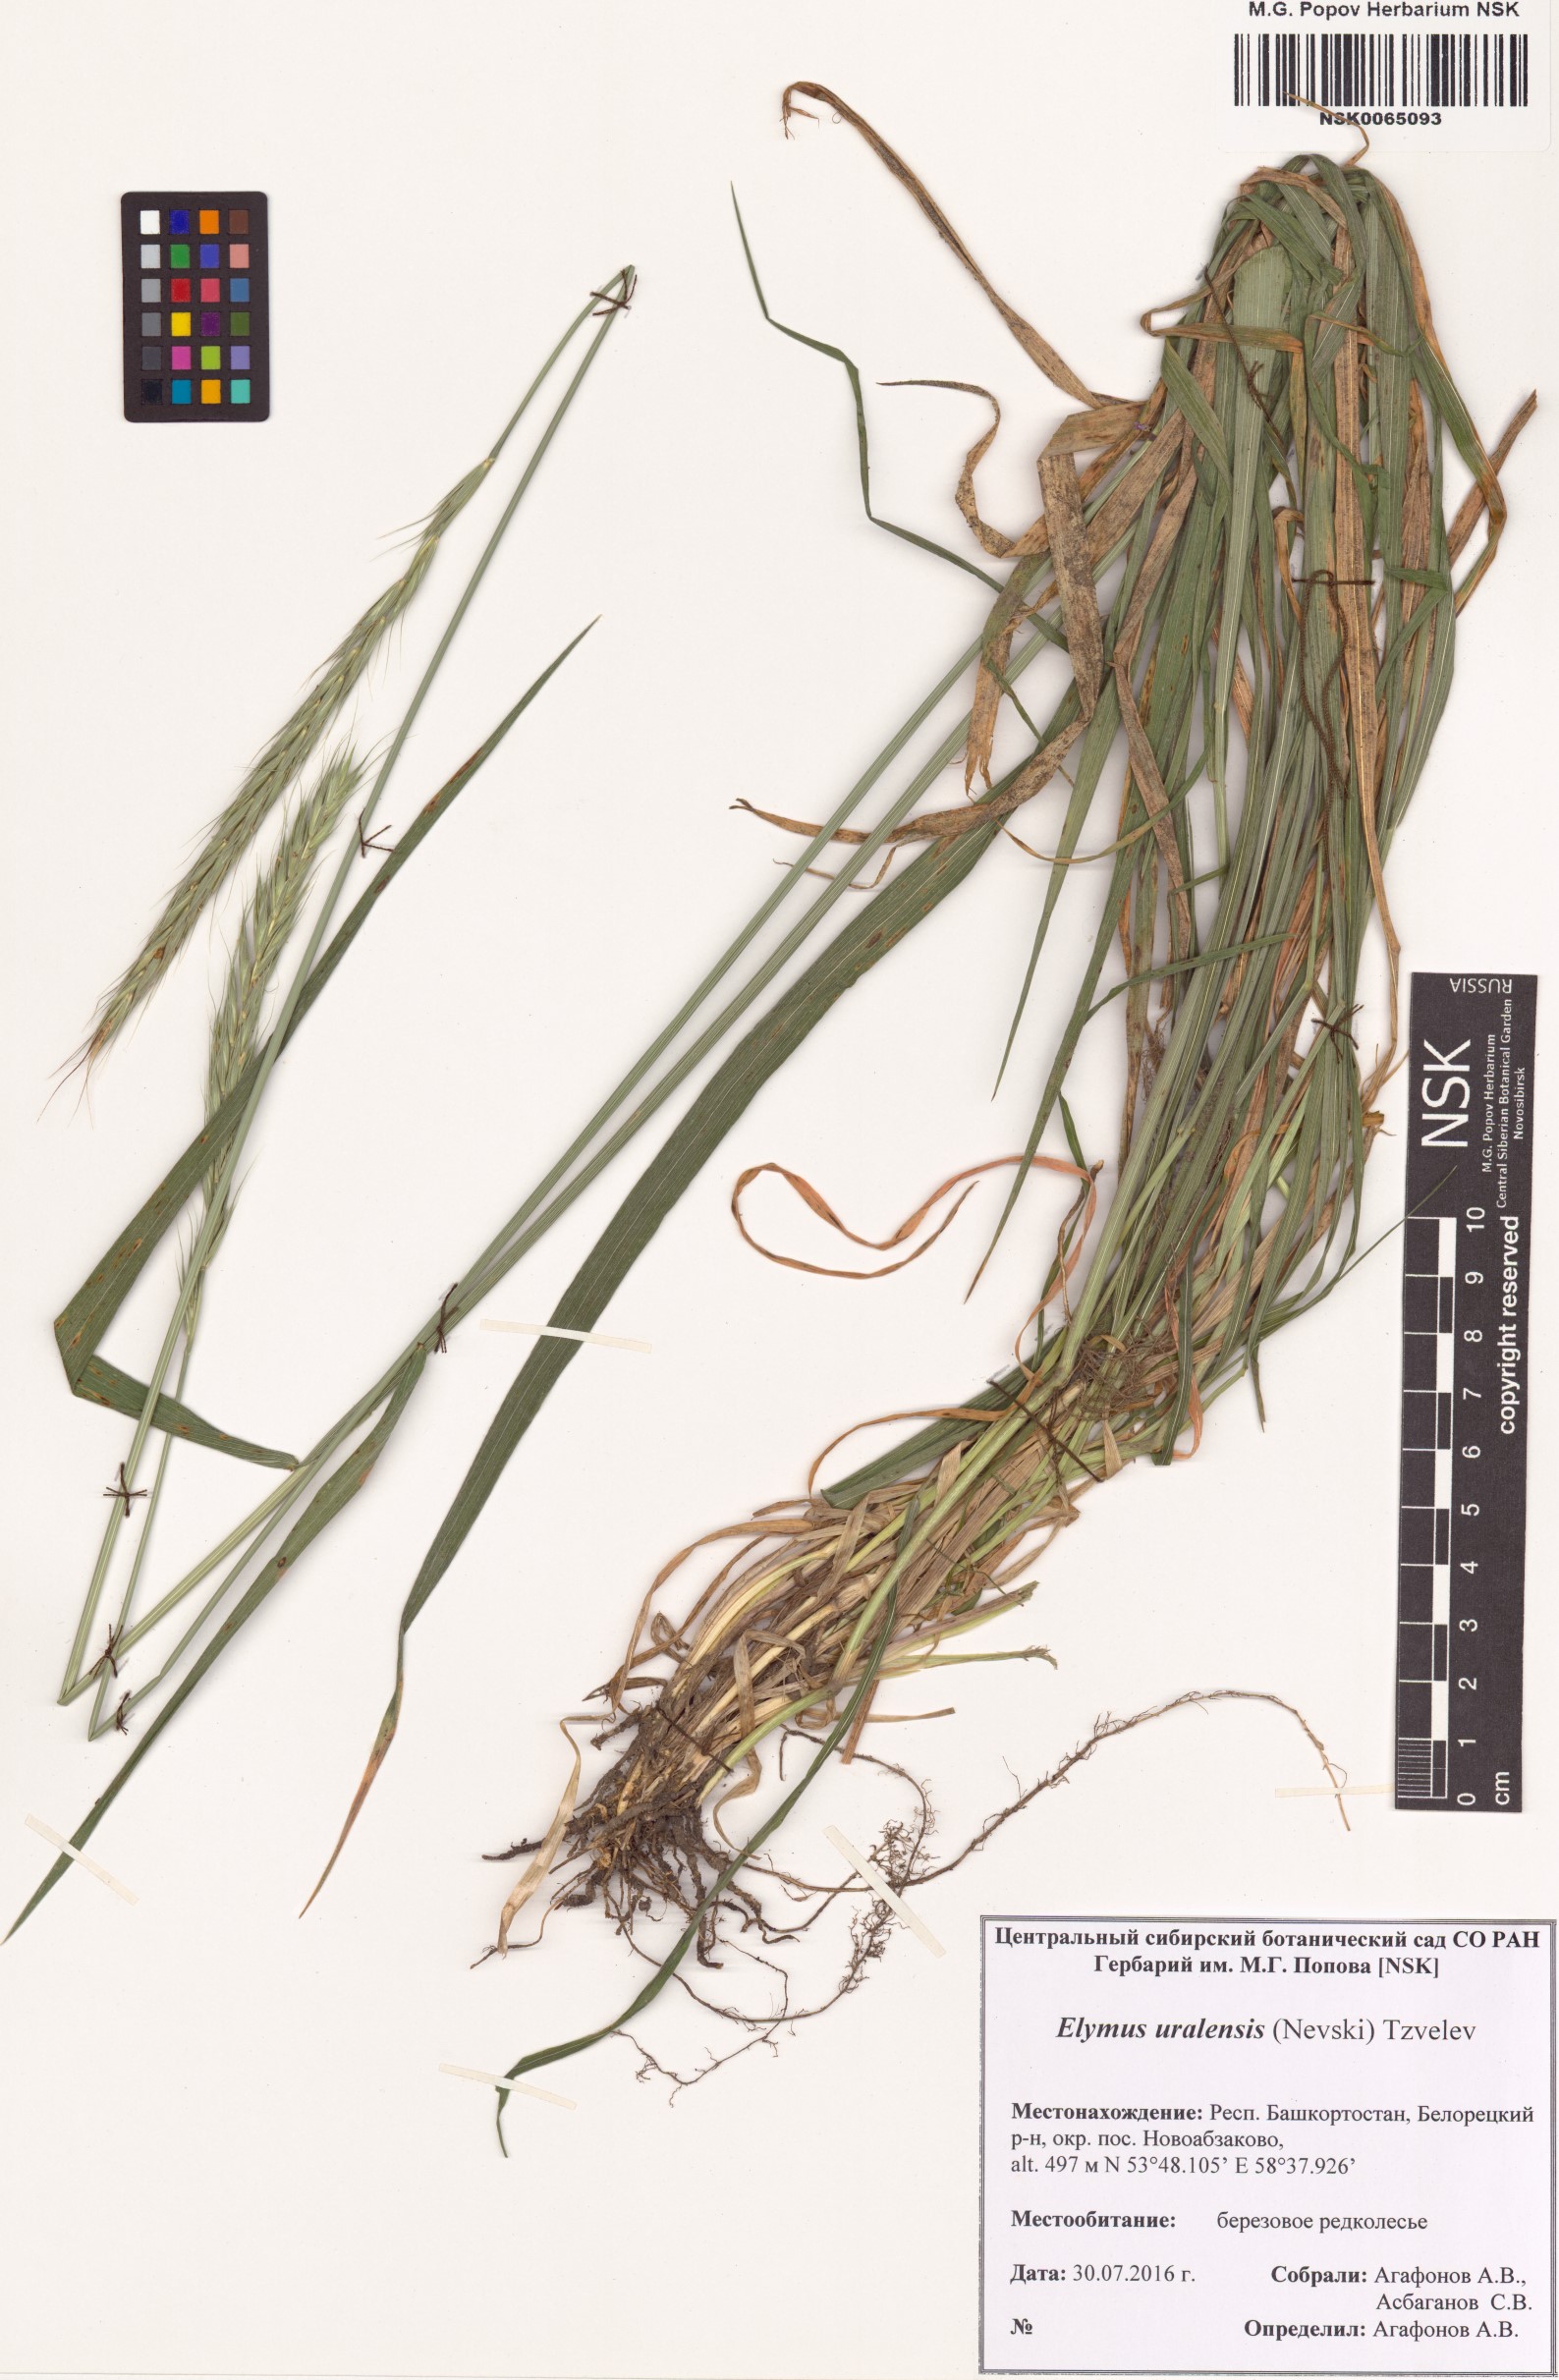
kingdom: Plantae
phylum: Tracheophyta
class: Liliopsida
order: Poales
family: Poaceae
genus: Elymus
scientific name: Elymus uralensis
